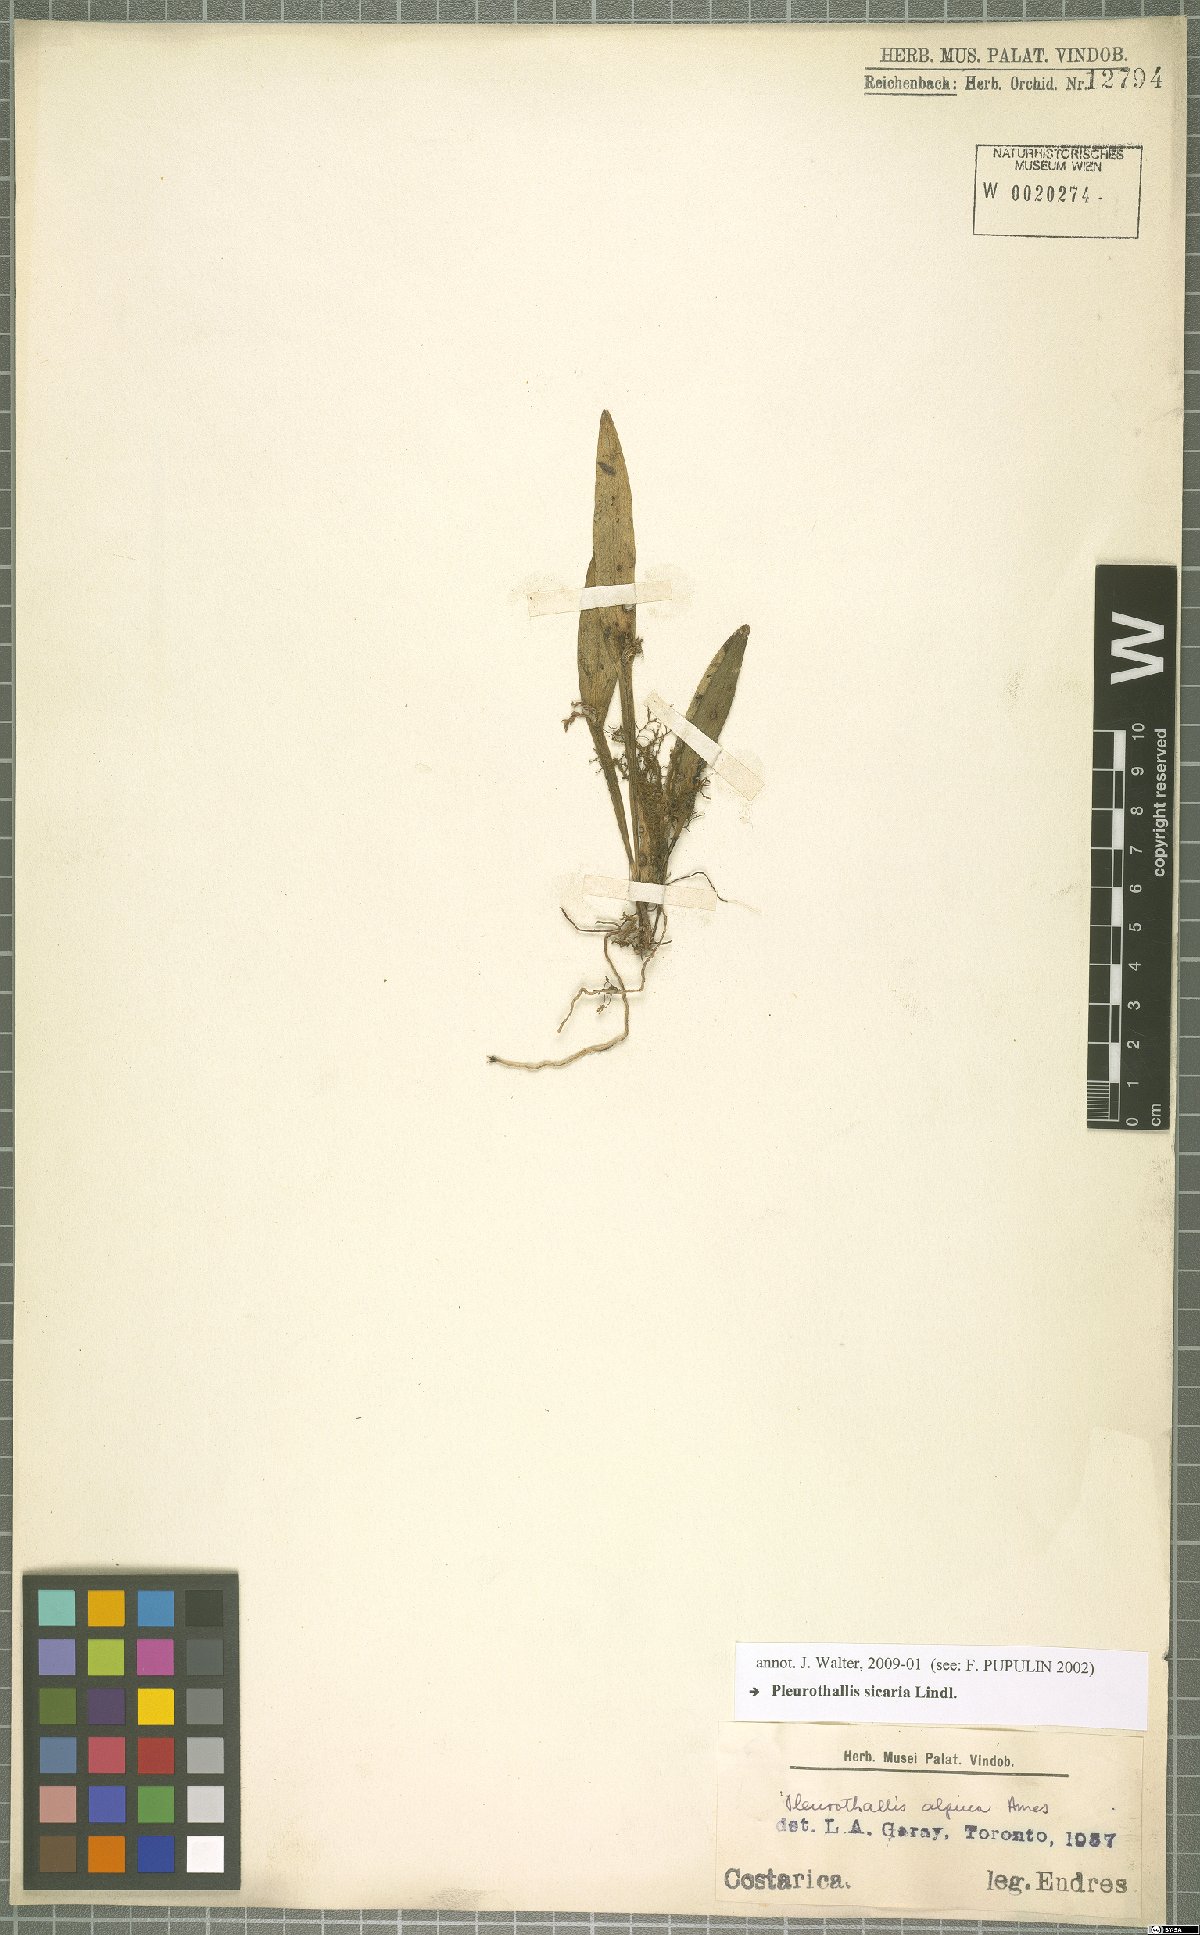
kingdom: Plantae
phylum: Tracheophyta
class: Liliopsida
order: Asparagales
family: Orchidaceae
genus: Acianthera
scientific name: Acianthera sicaria
